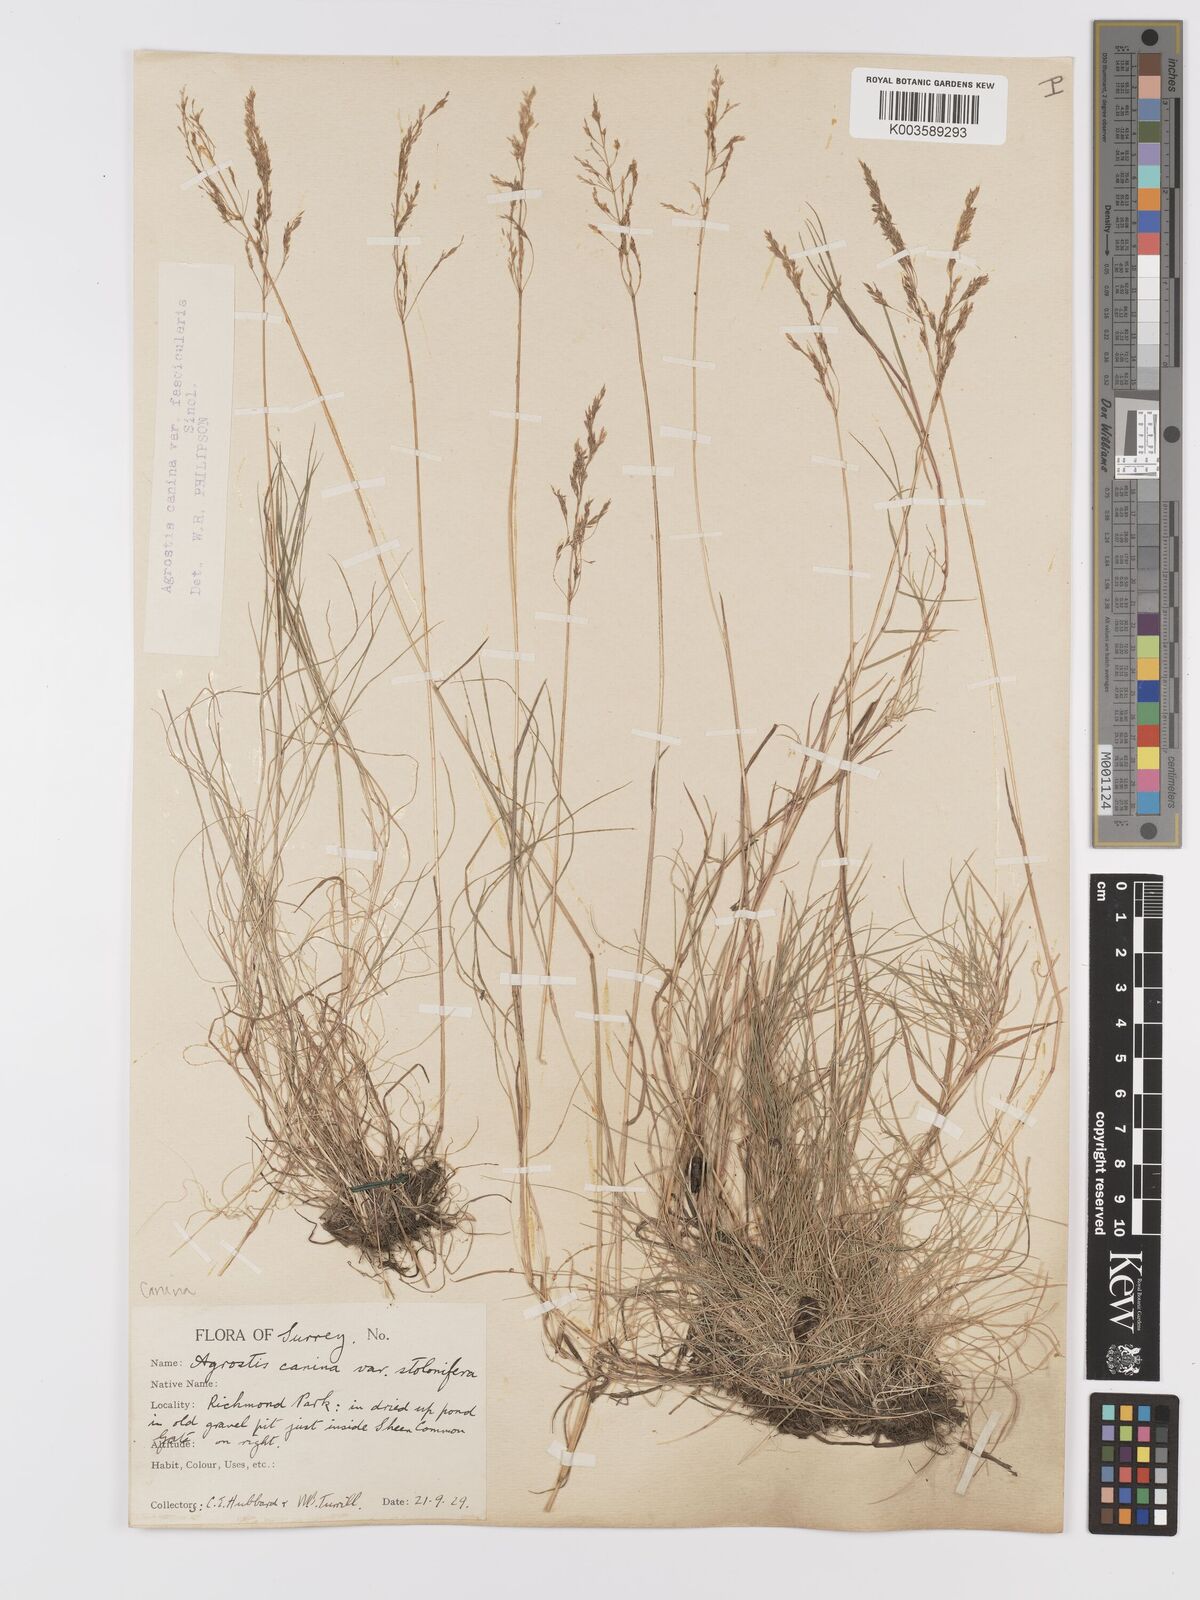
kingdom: Plantae
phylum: Tracheophyta
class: Liliopsida
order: Poales
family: Poaceae
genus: Agrostis
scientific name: Agrostis canina
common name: Velvet bent
